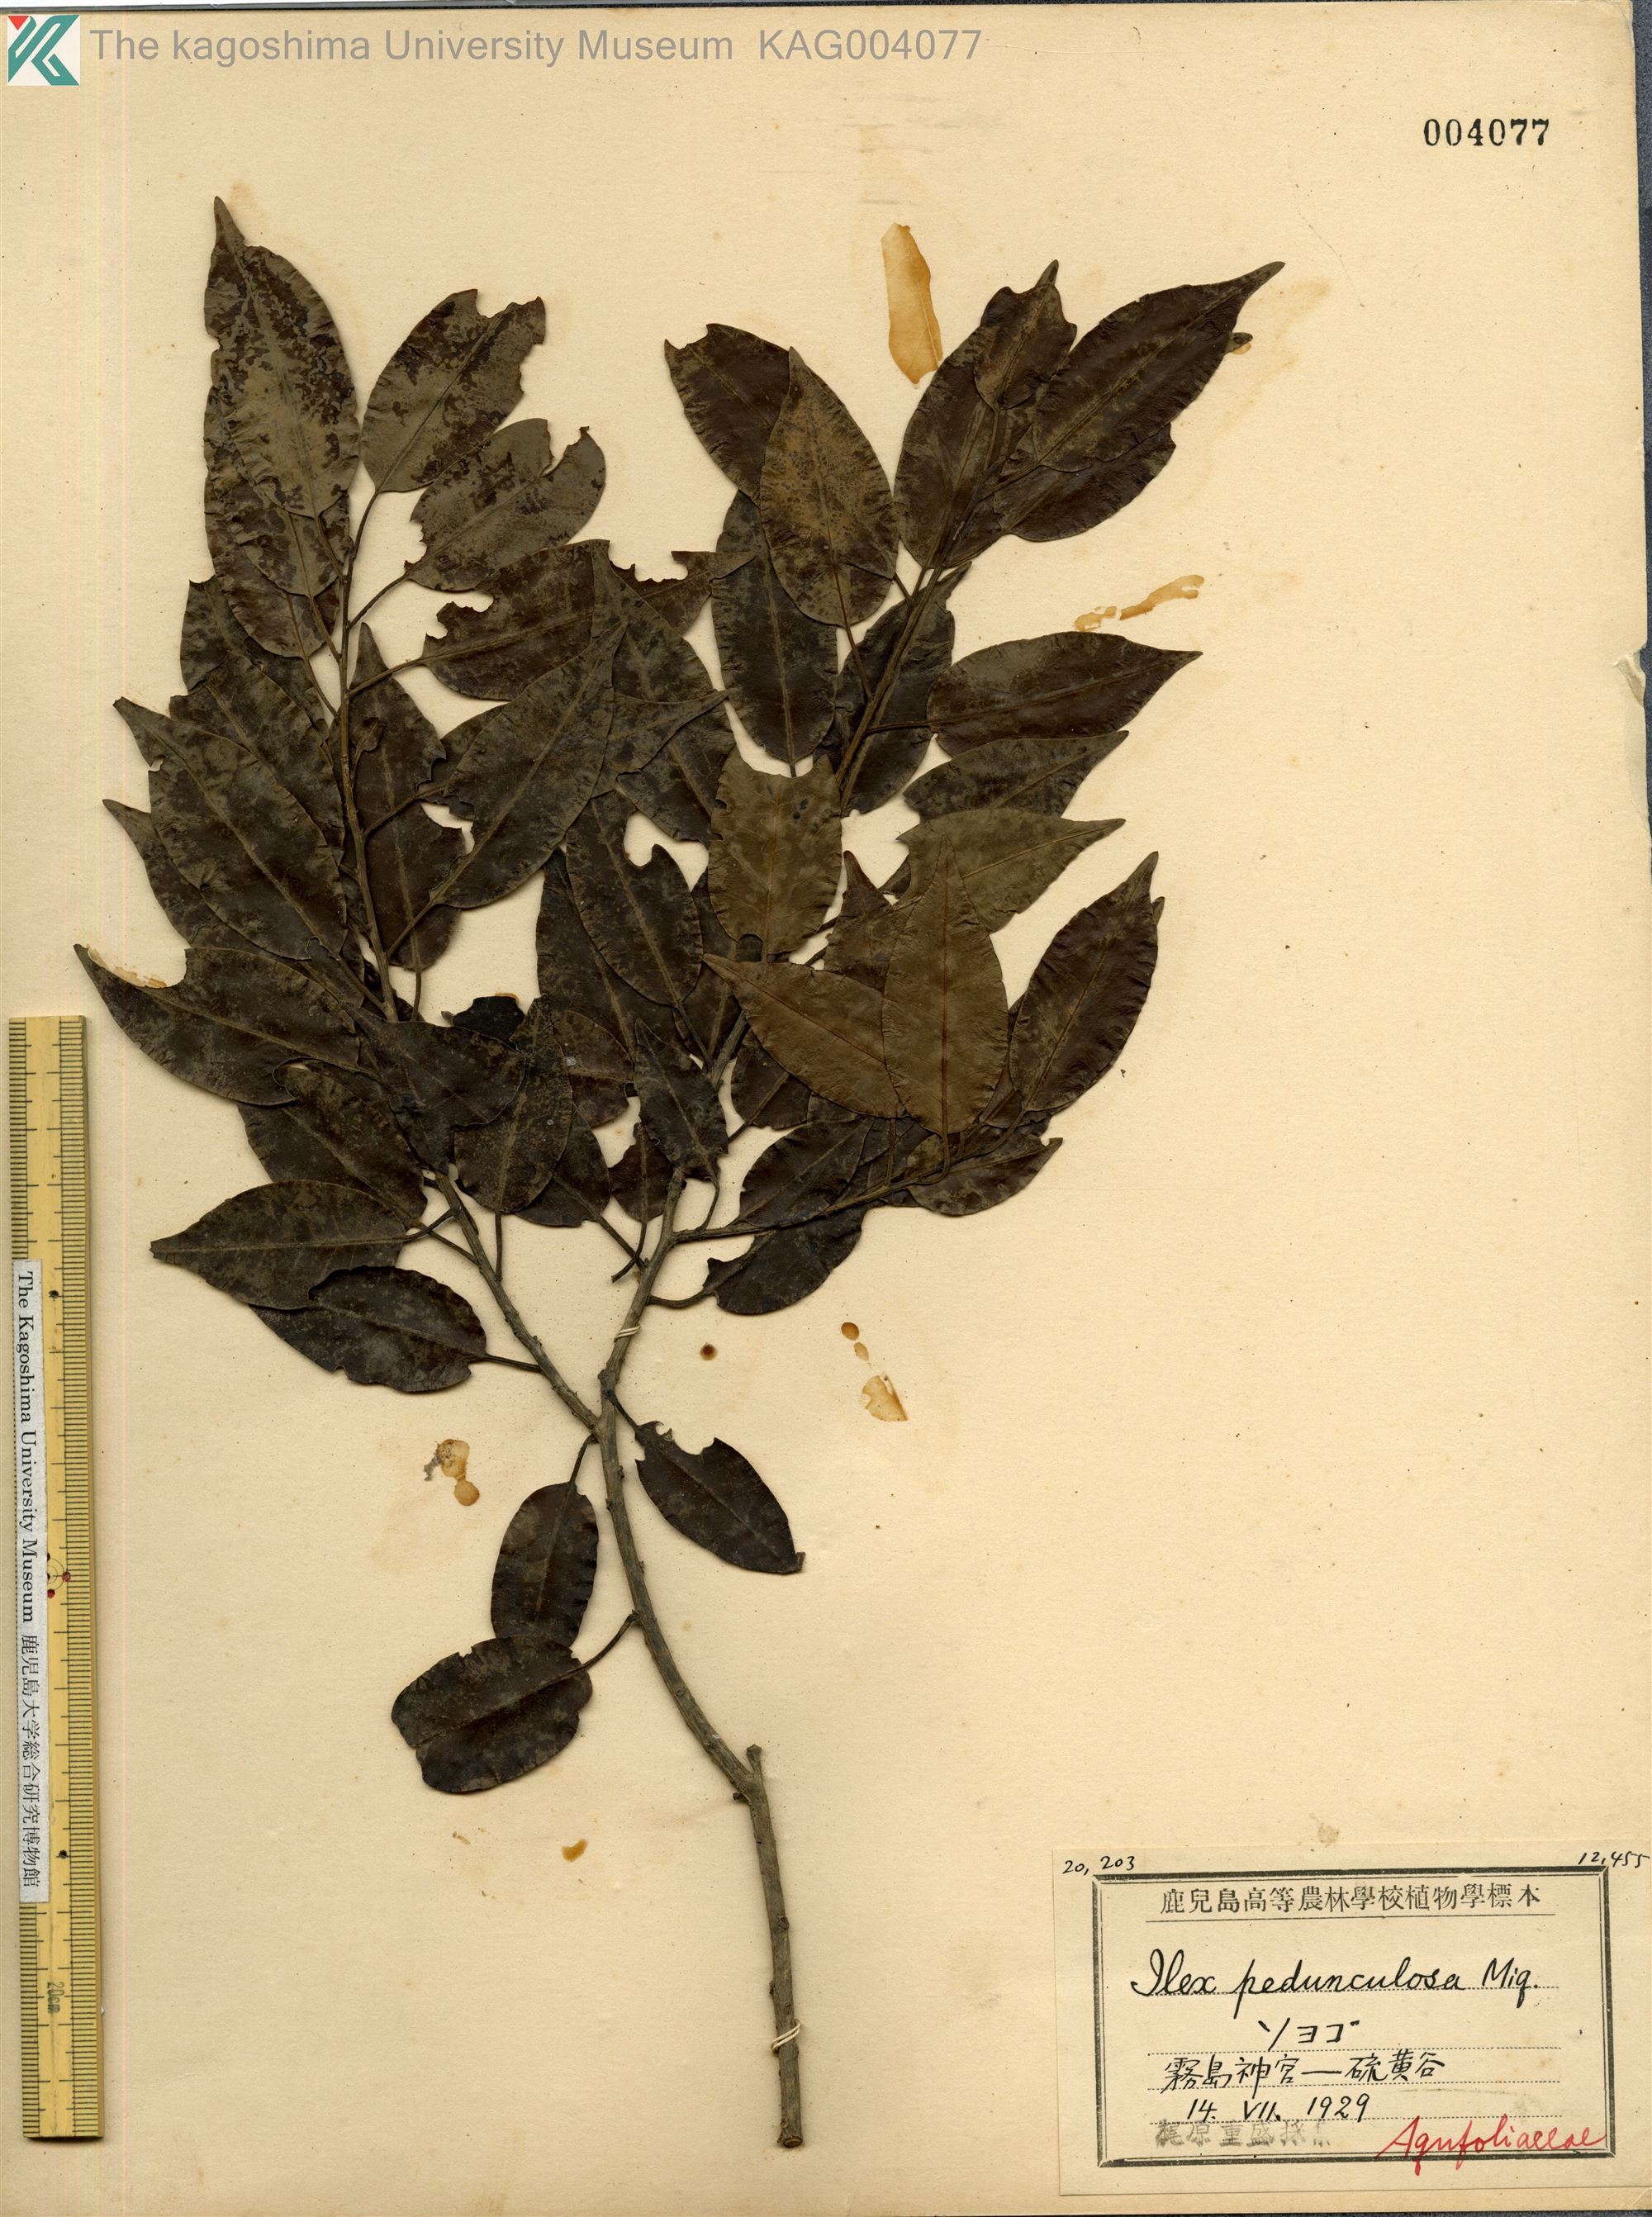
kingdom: Plantae
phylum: Tracheophyta
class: Magnoliopsida
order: Aquifoliales
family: Aquifoliaceae
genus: Ilex
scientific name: Ilex pedunculosa
